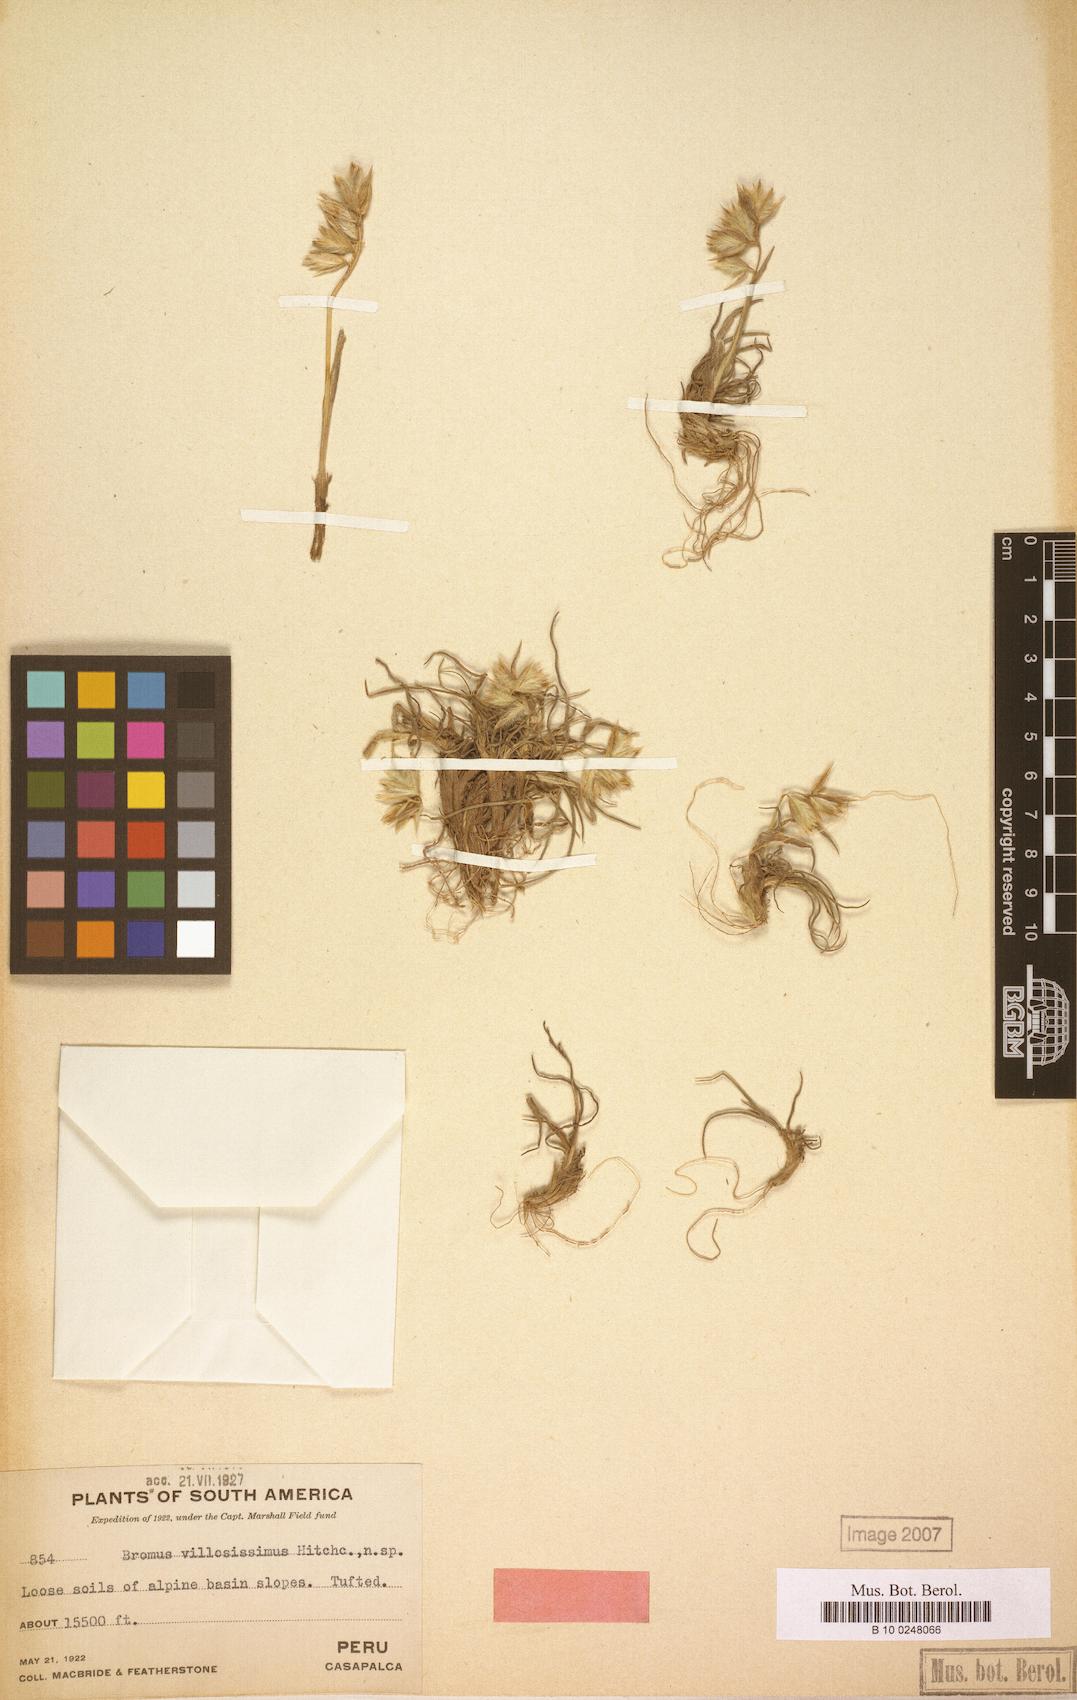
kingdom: Plantae
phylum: Tracheophyta
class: Liliopsida
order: Poales
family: Poaceae
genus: Bromus
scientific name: Bromus villosissimus
